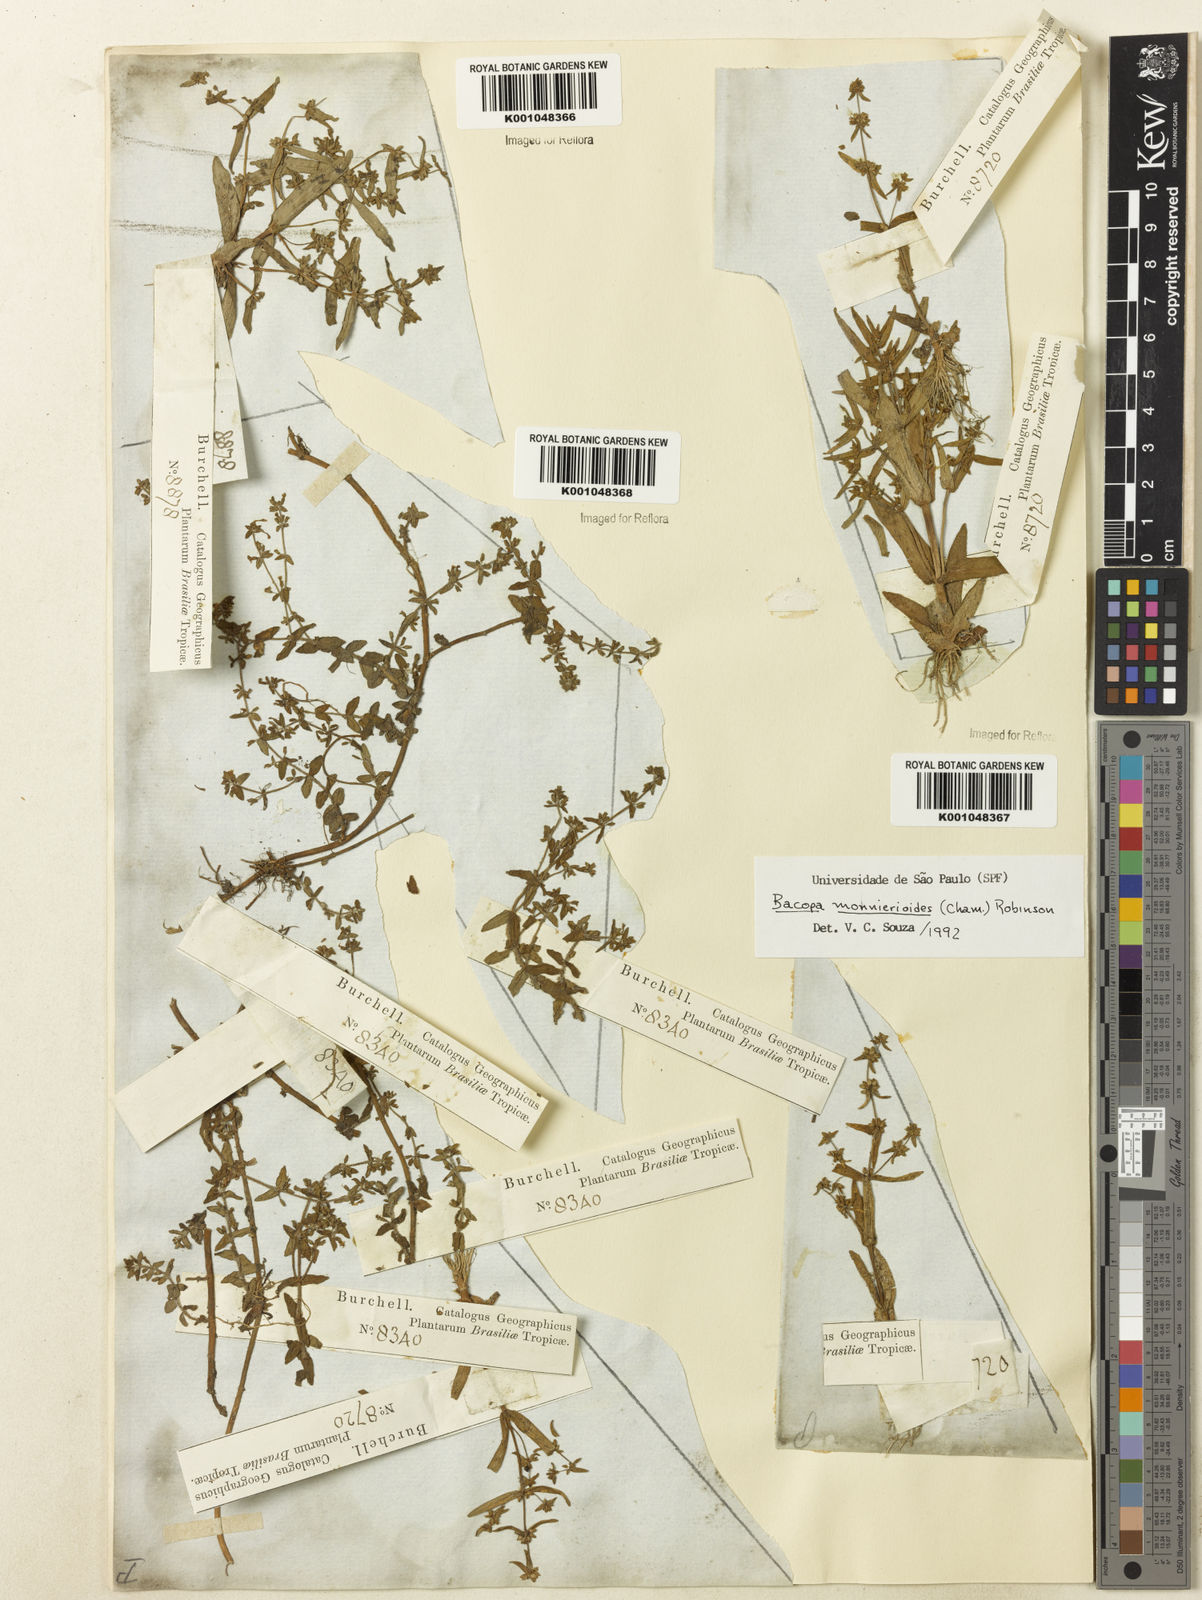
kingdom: Plantae
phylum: Tracheophyta
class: Magnoliopsida
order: Lamiales
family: Plantaginaceae
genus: Bacopa
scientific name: Bacopa monnierioides
